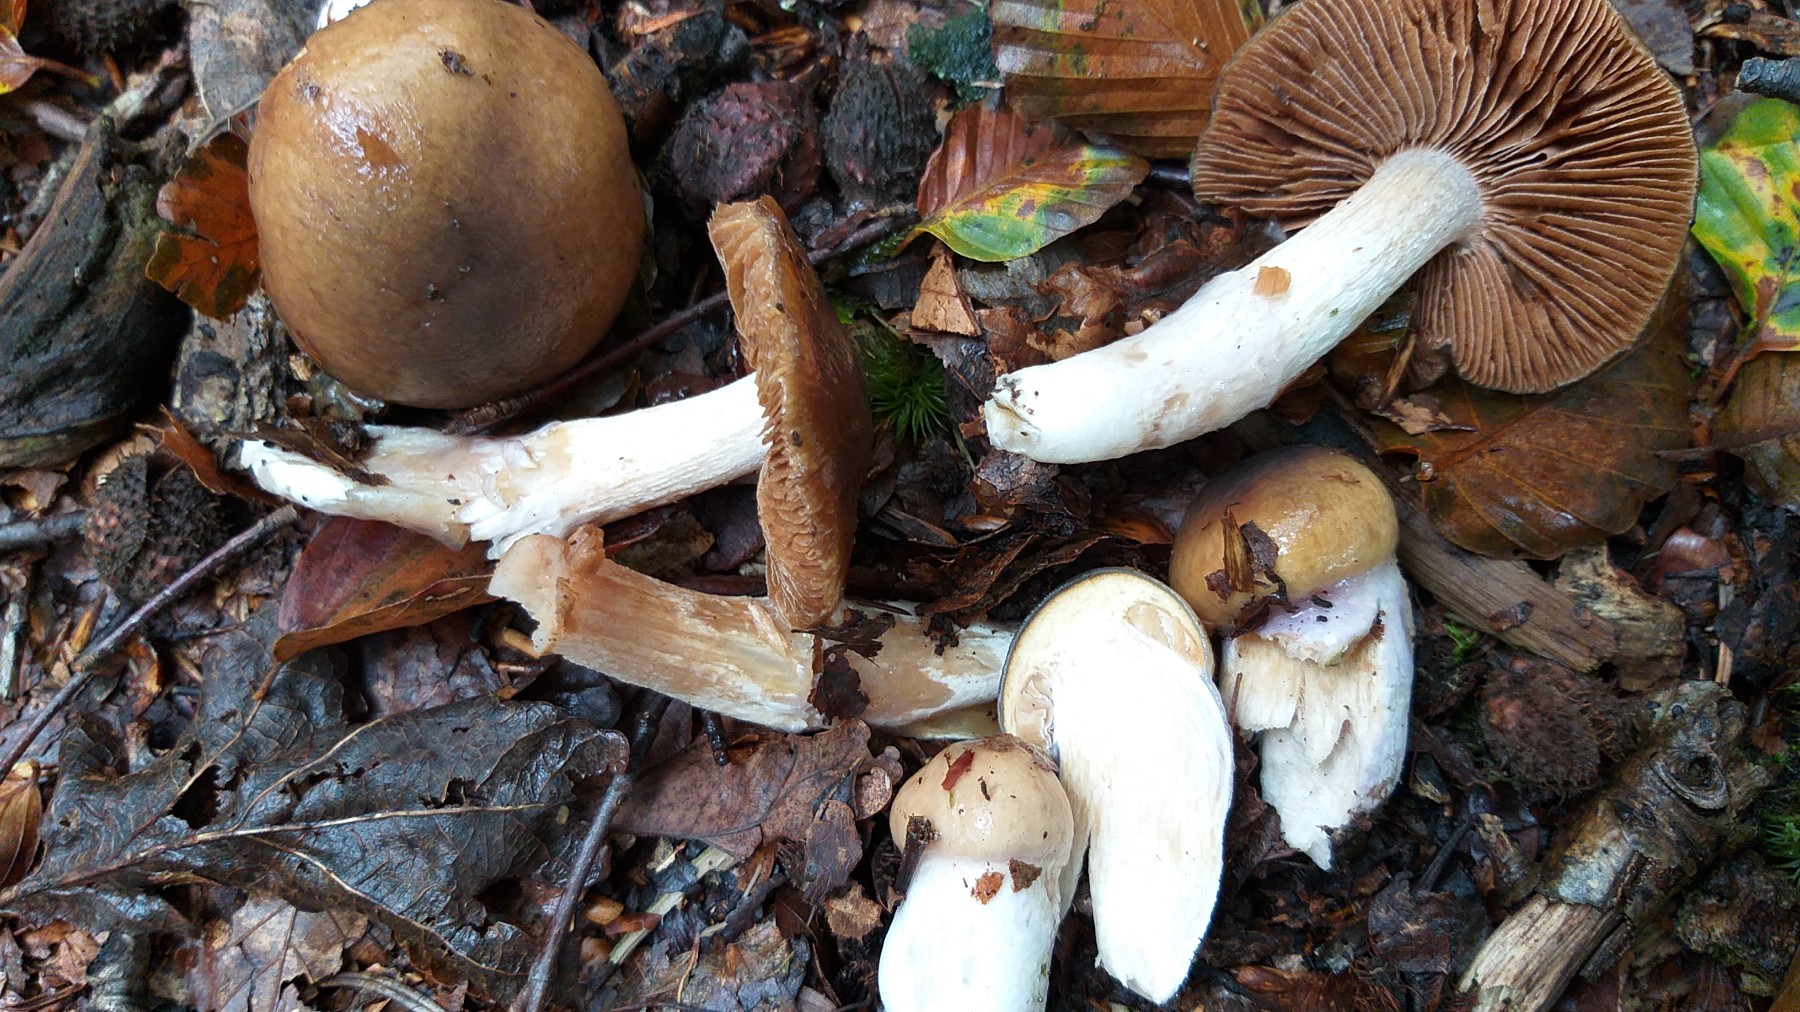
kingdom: Fungi
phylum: Basidiomycota
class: Agaricomycetes
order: Agaricales
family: Cortinariaceae
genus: Cortinarius
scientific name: Cortinarius elatior
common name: høj slørhat
